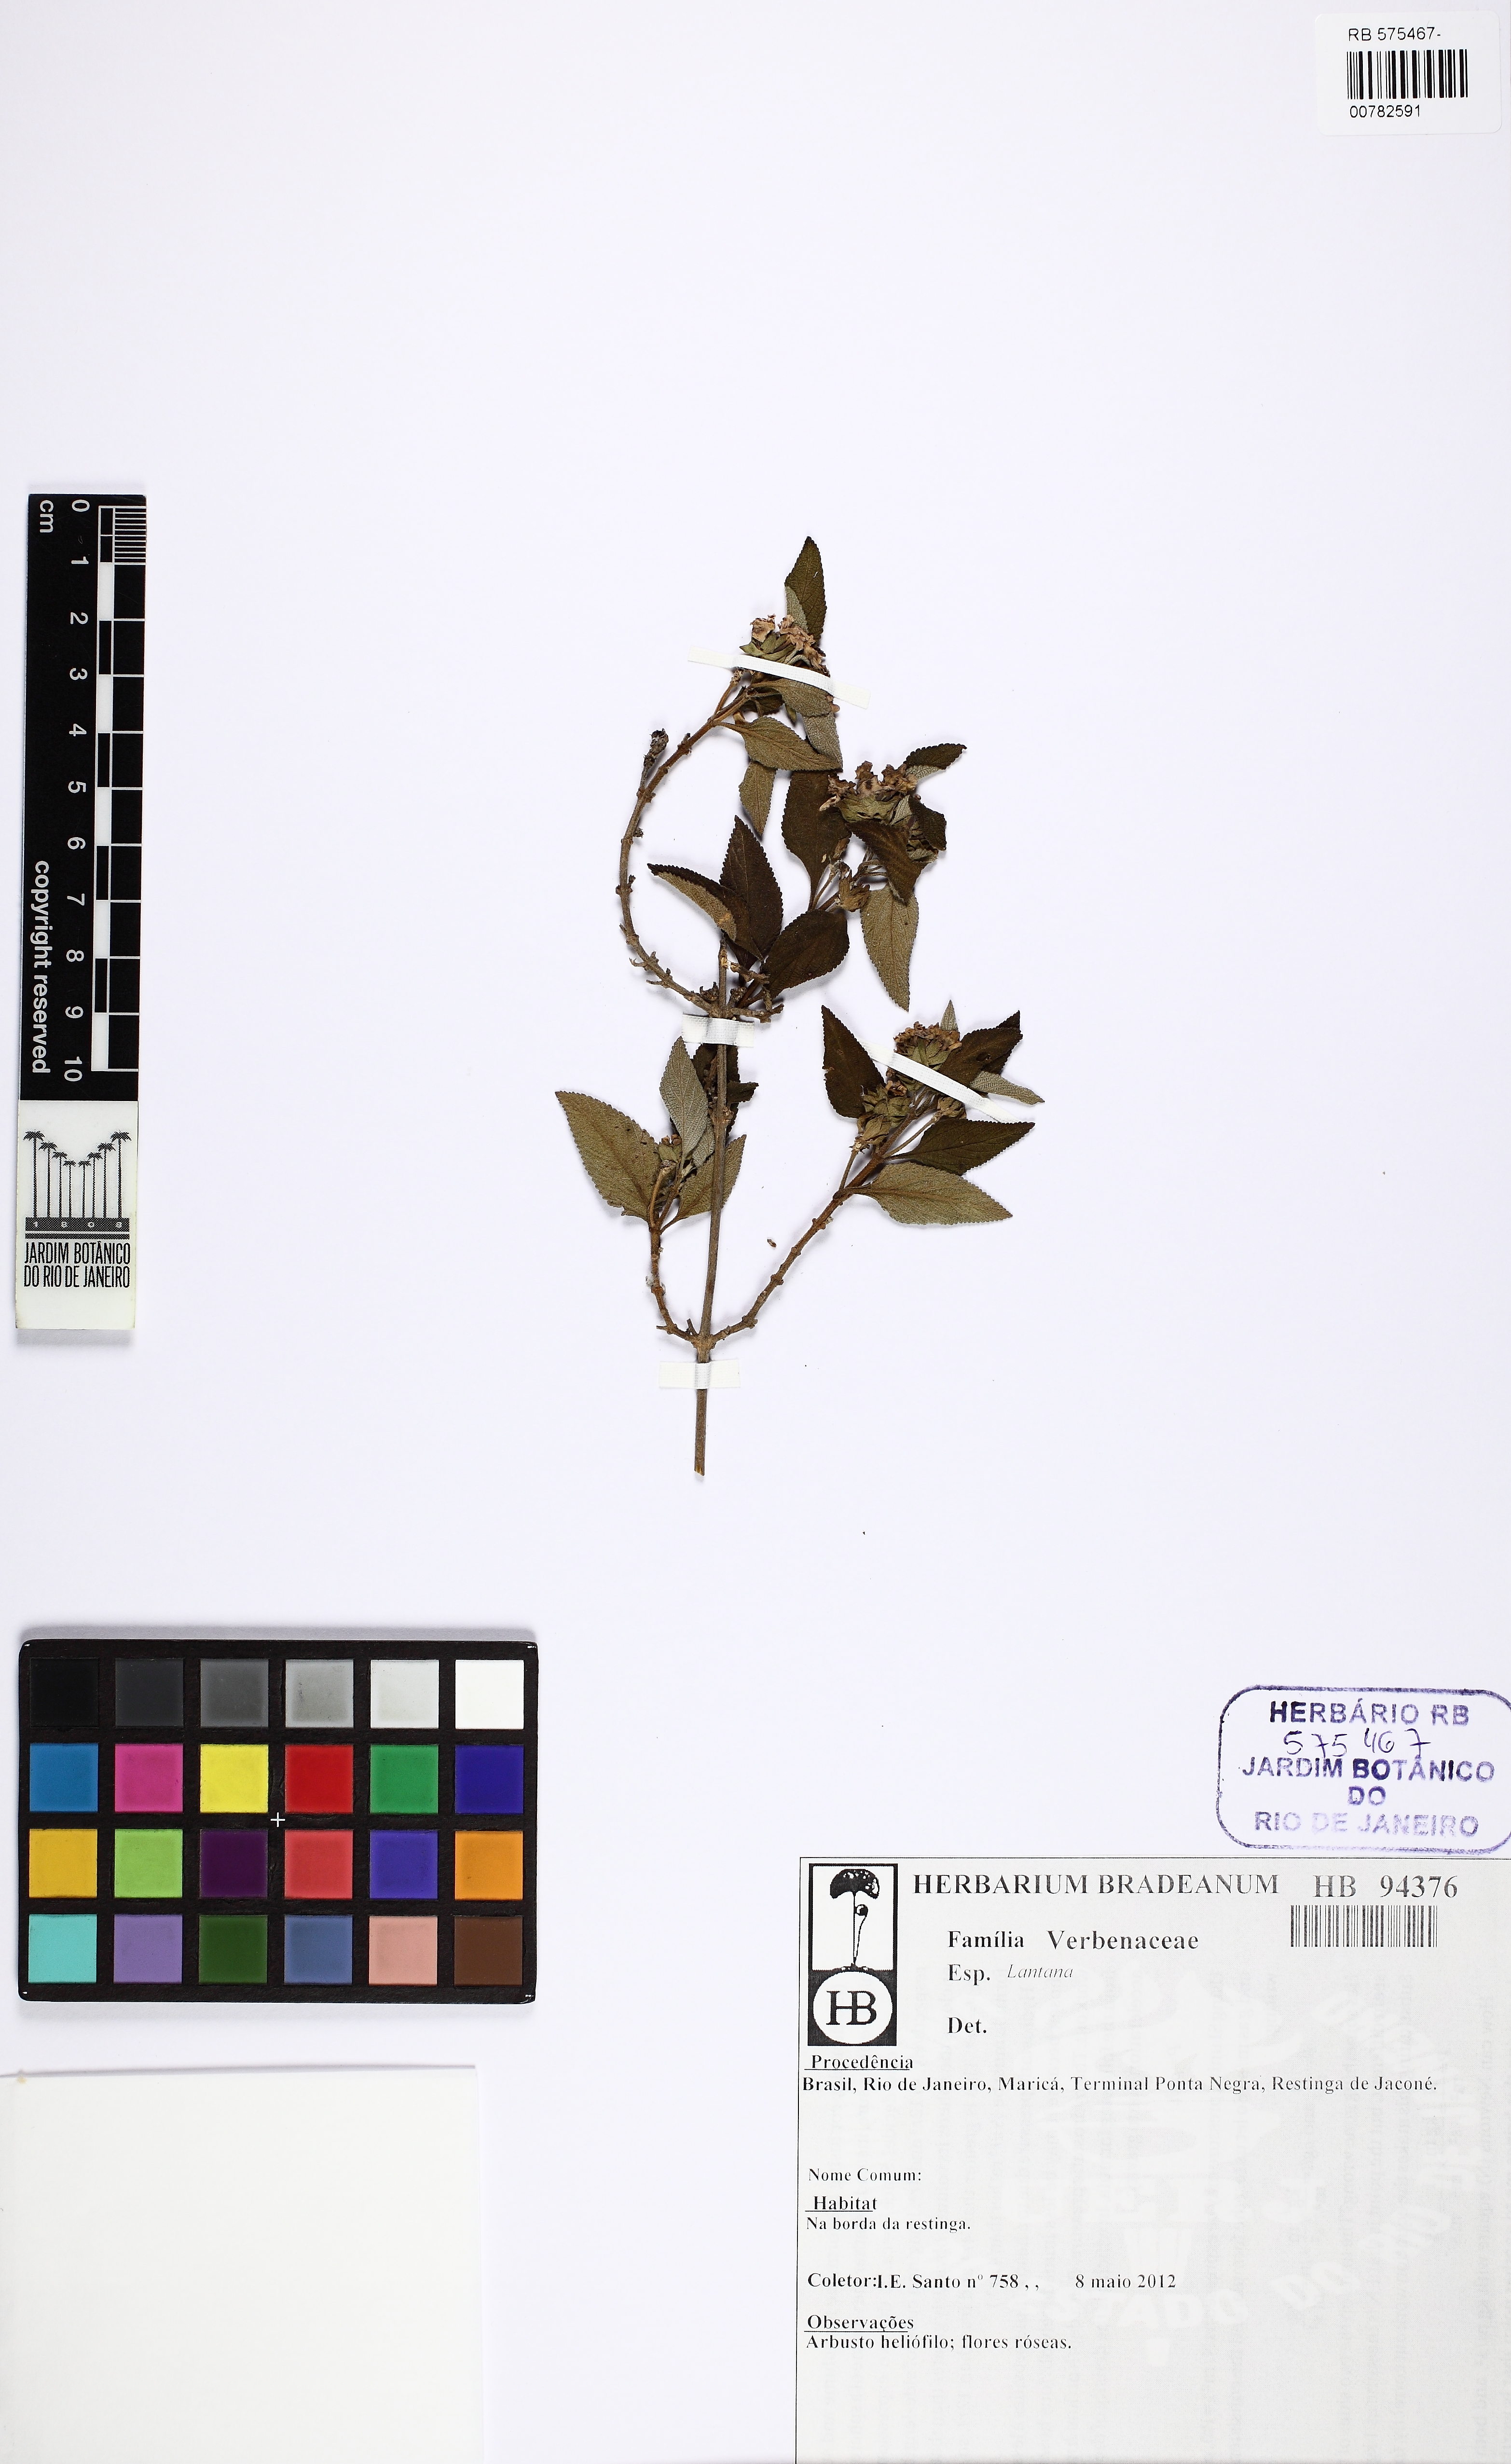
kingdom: Plantae
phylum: Tracheophyta
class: Magnoliopsida
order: Lamiales
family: Verbenaceae
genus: Lantana
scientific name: Lantana
